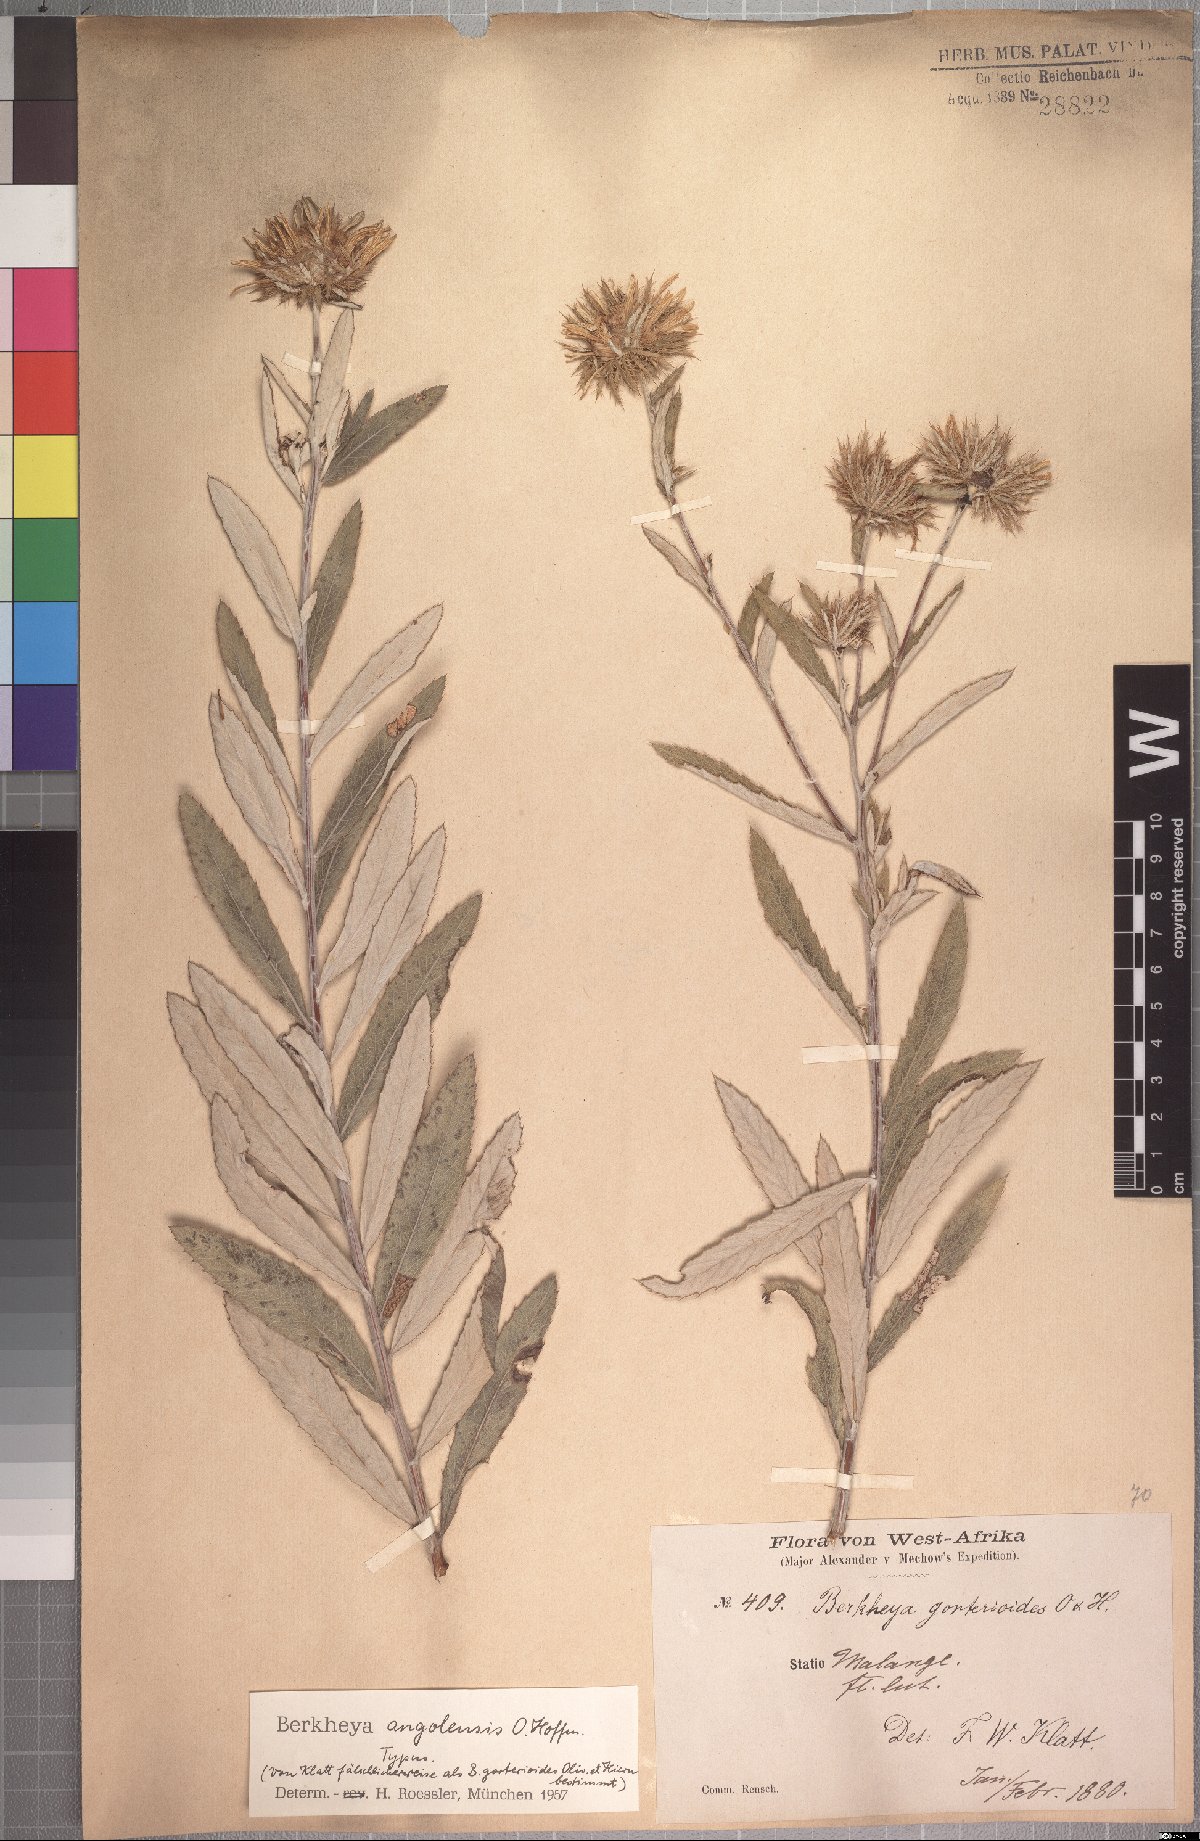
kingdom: Plantae
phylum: Tracheophyta
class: Magnoliopsida
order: Asterales
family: Asteraceae
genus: Berkheya
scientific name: Berkheya angolensis
